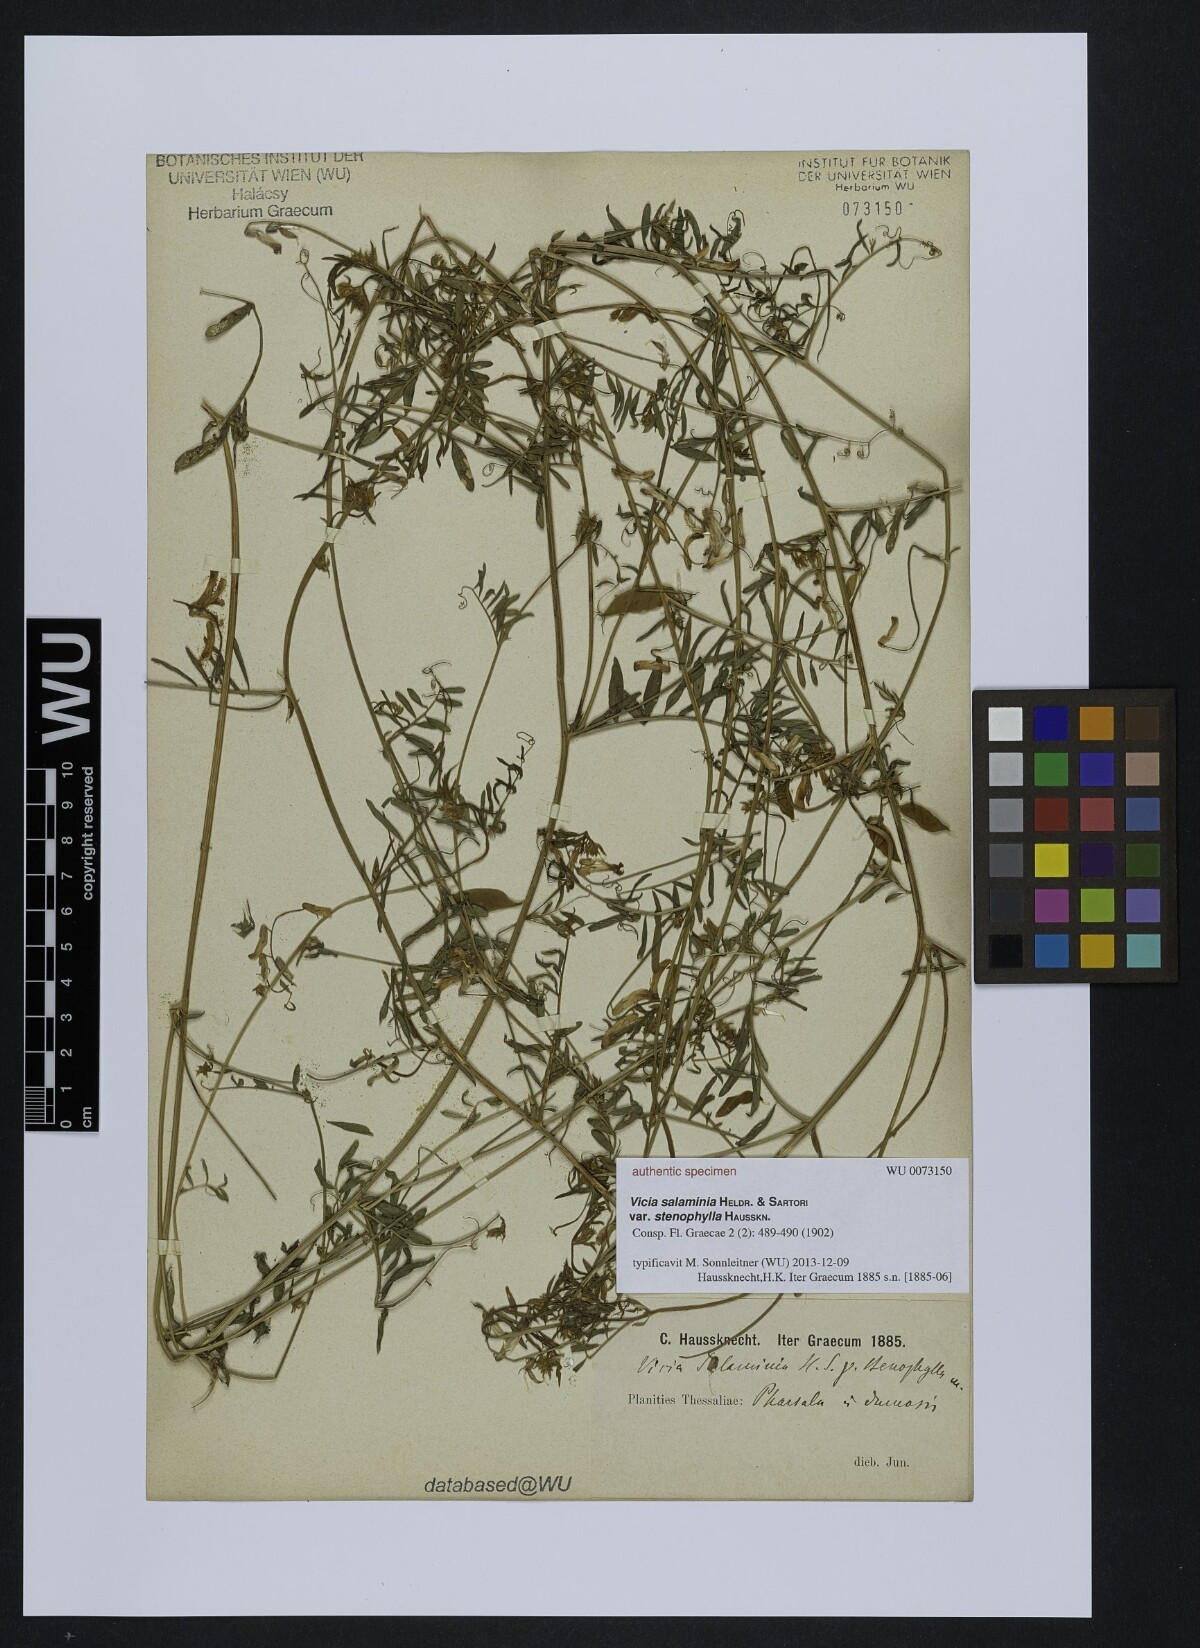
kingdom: Plantae
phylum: Tracheophyta
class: Magnoliopsida
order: Fabales
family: Fabaceae
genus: Vicia
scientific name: Vicia villosa
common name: Fodder vetch
